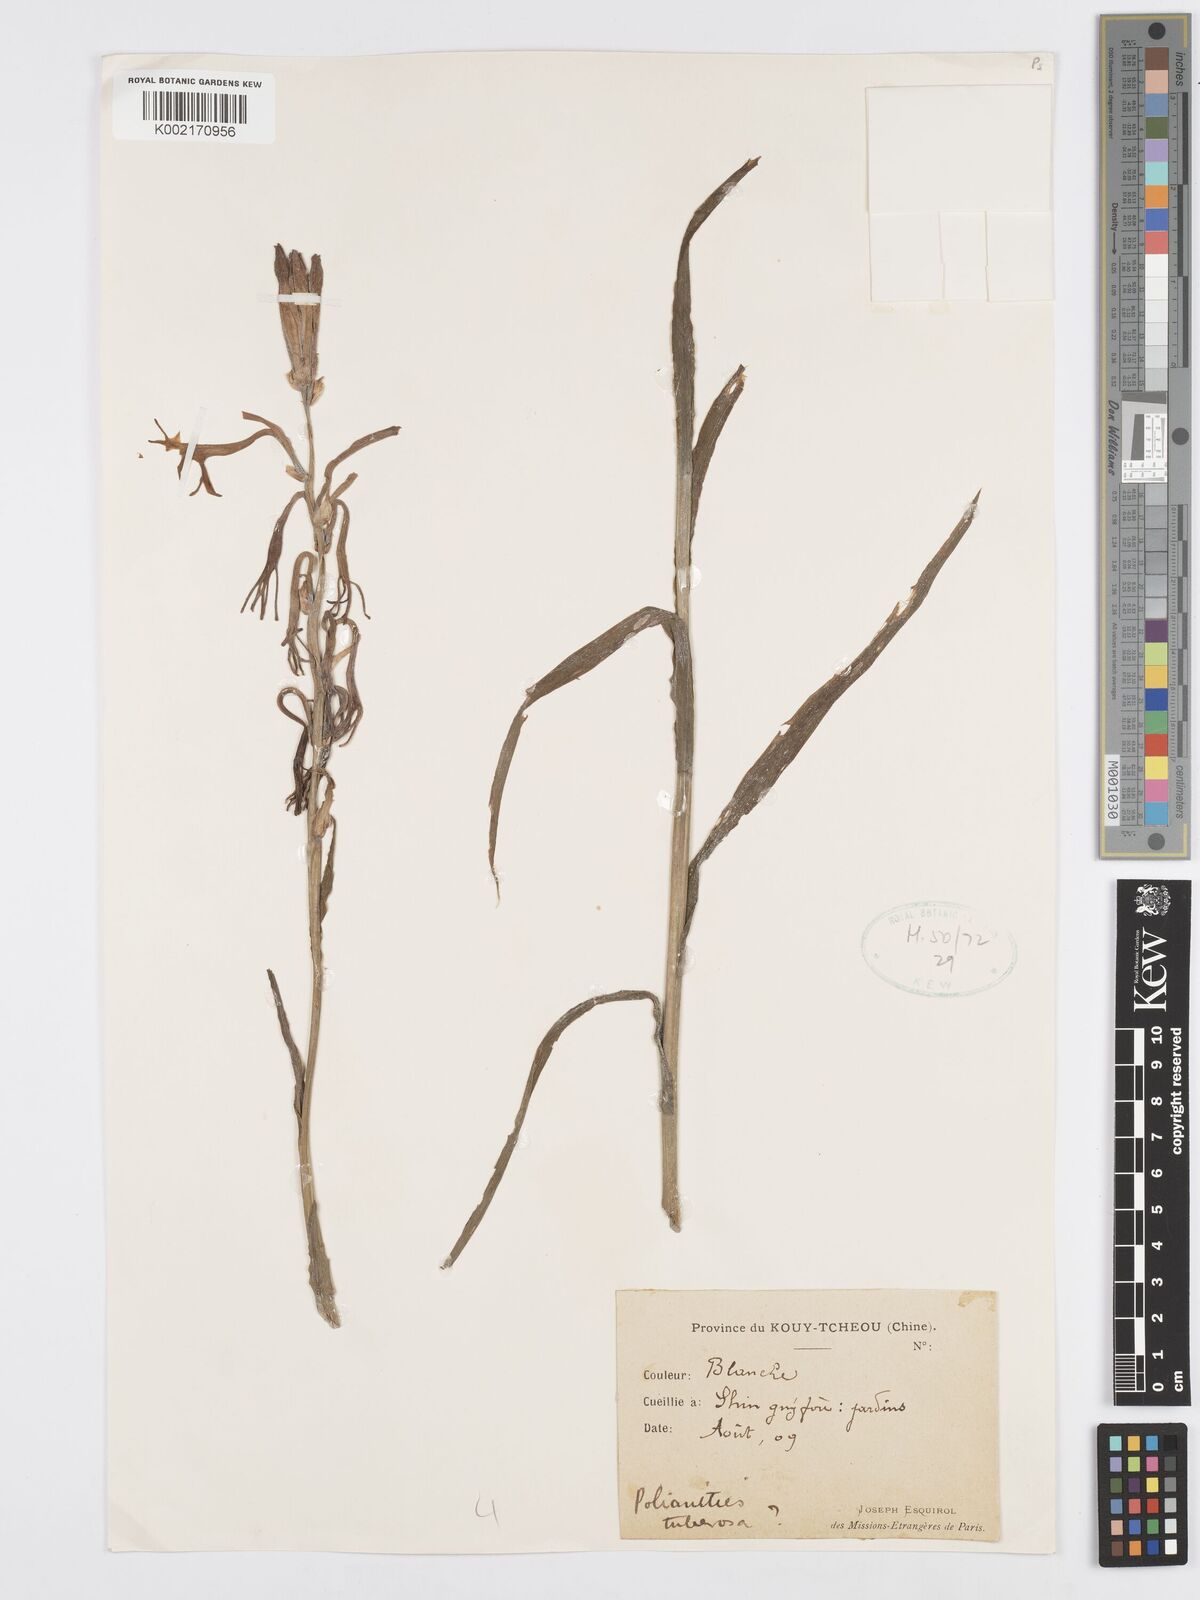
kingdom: Plantae
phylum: Tracheophyta
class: Liliopsida
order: Asparagales
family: Asparagaceae
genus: Agave
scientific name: Agave amica
